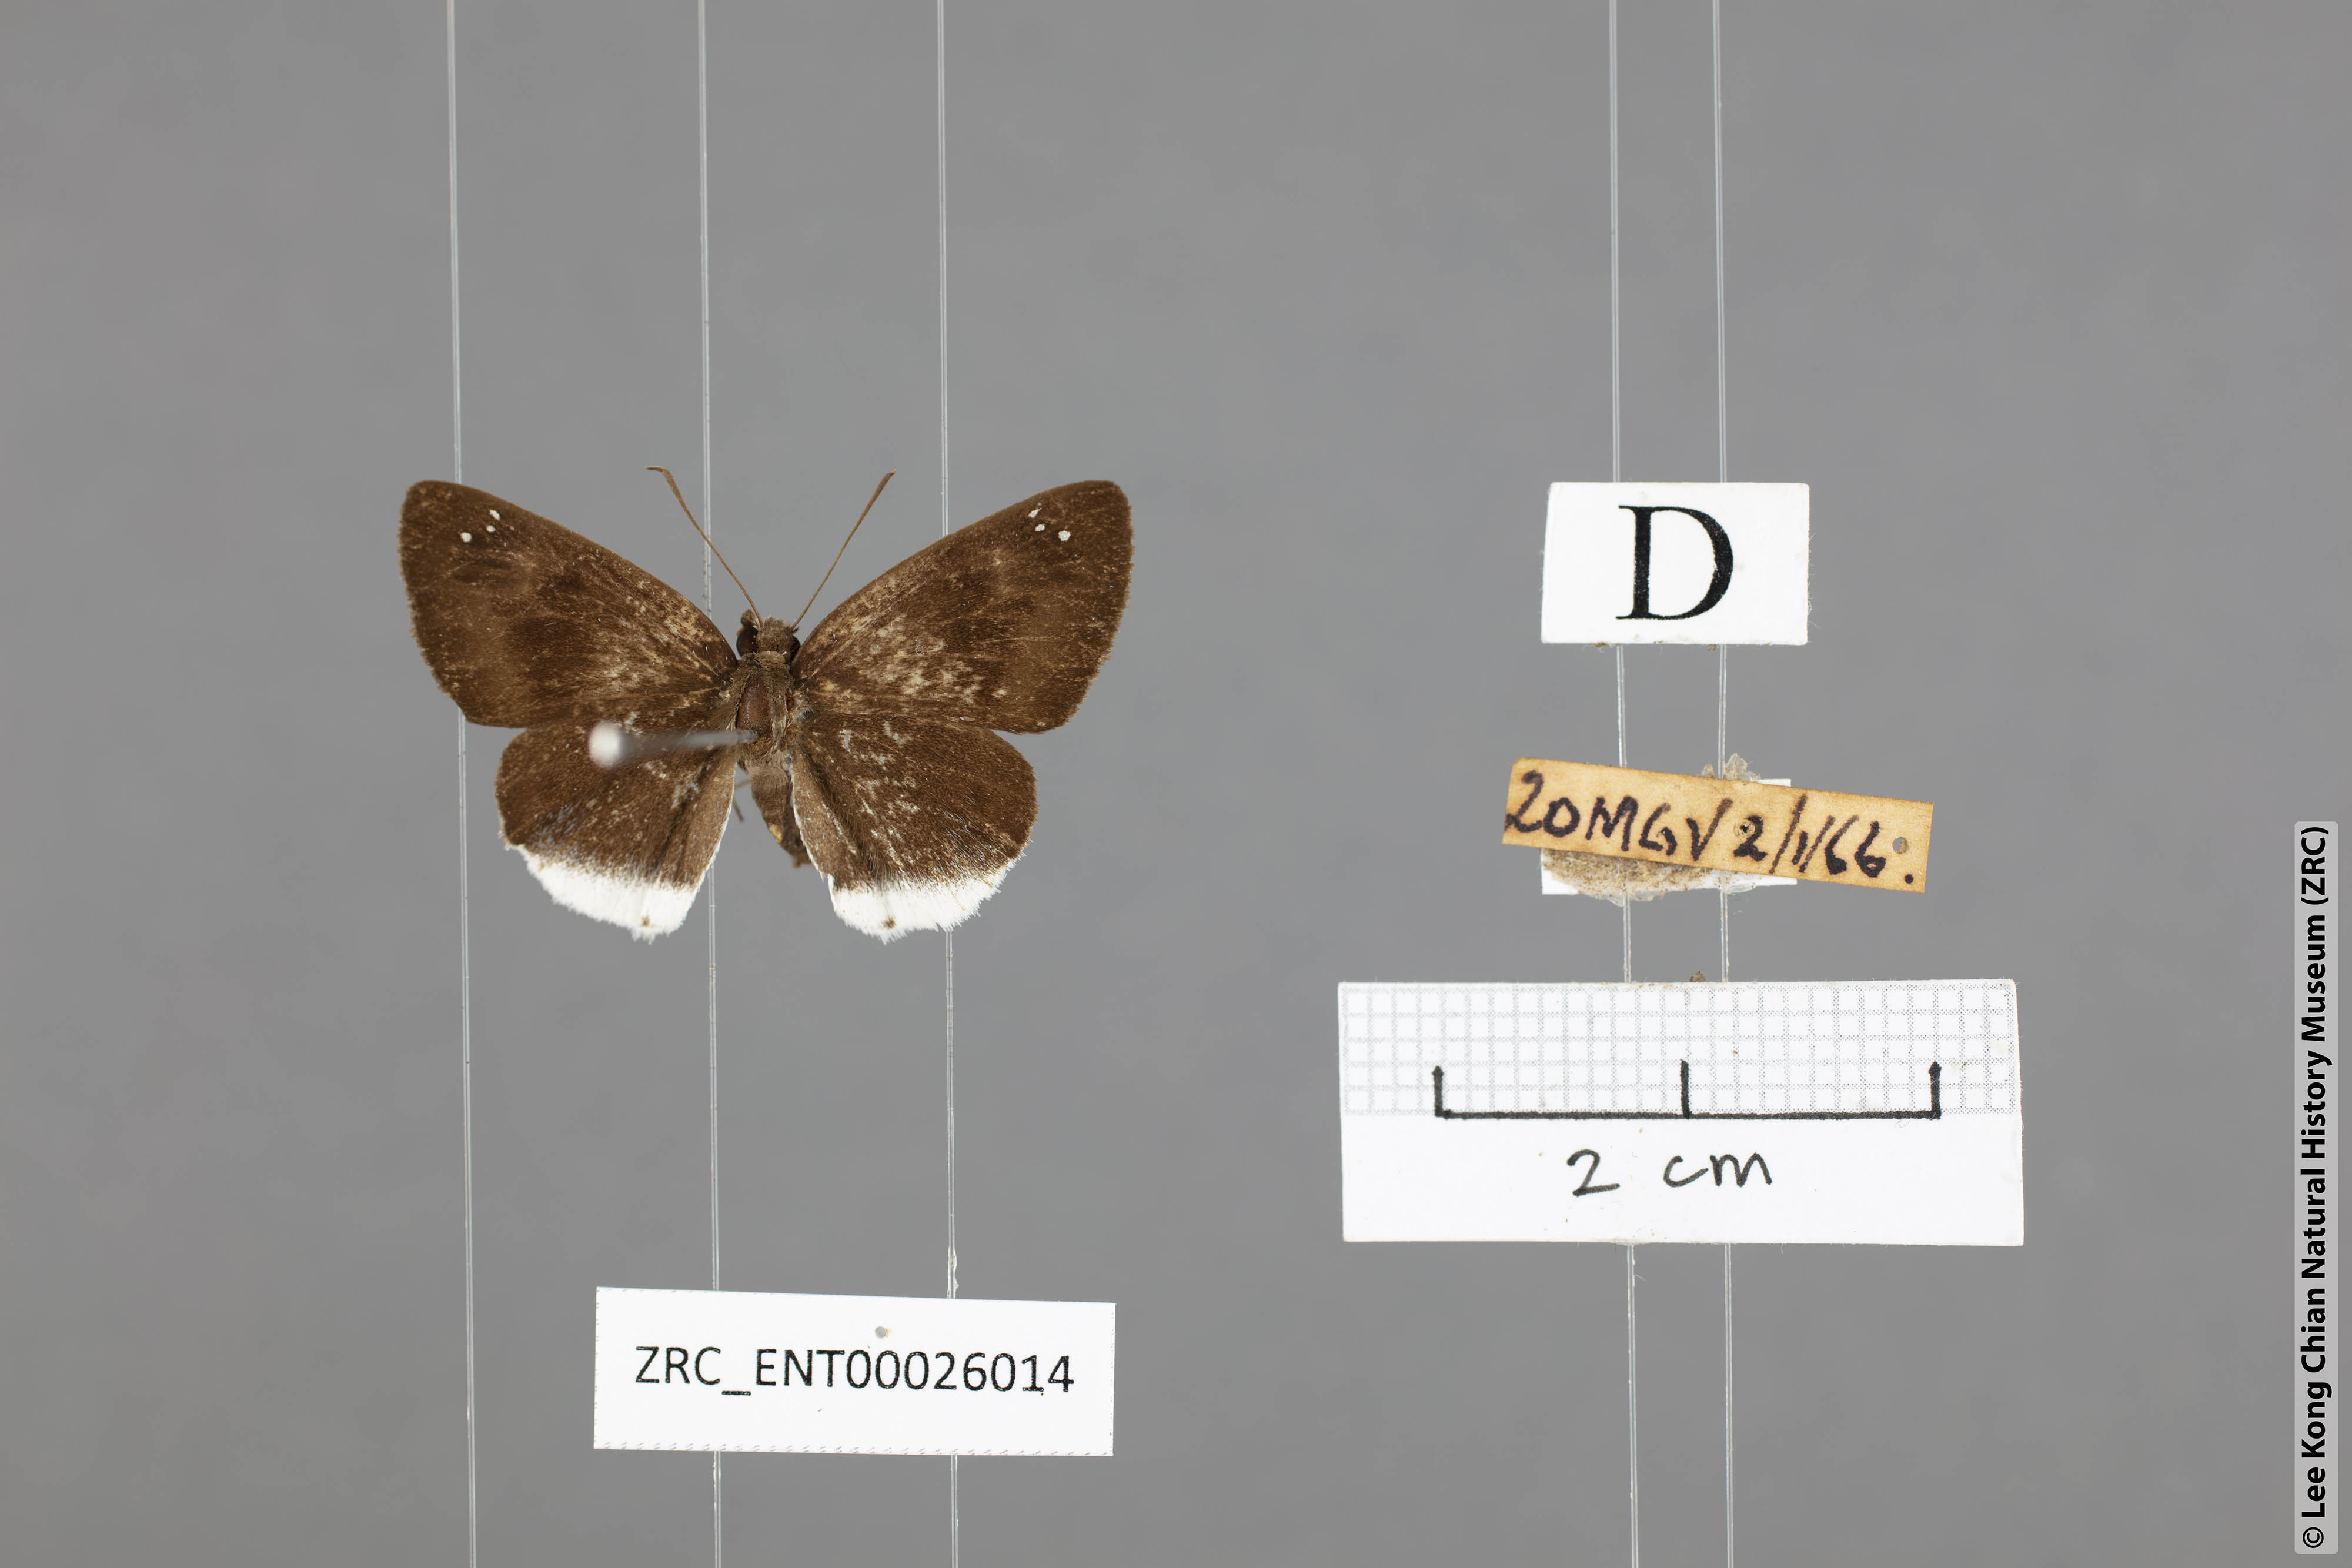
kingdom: Animalia
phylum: Arthropoda
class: Insecta
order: Lepidoptera
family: Hesperiidae
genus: Tagiades
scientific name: Tagiades lavata
